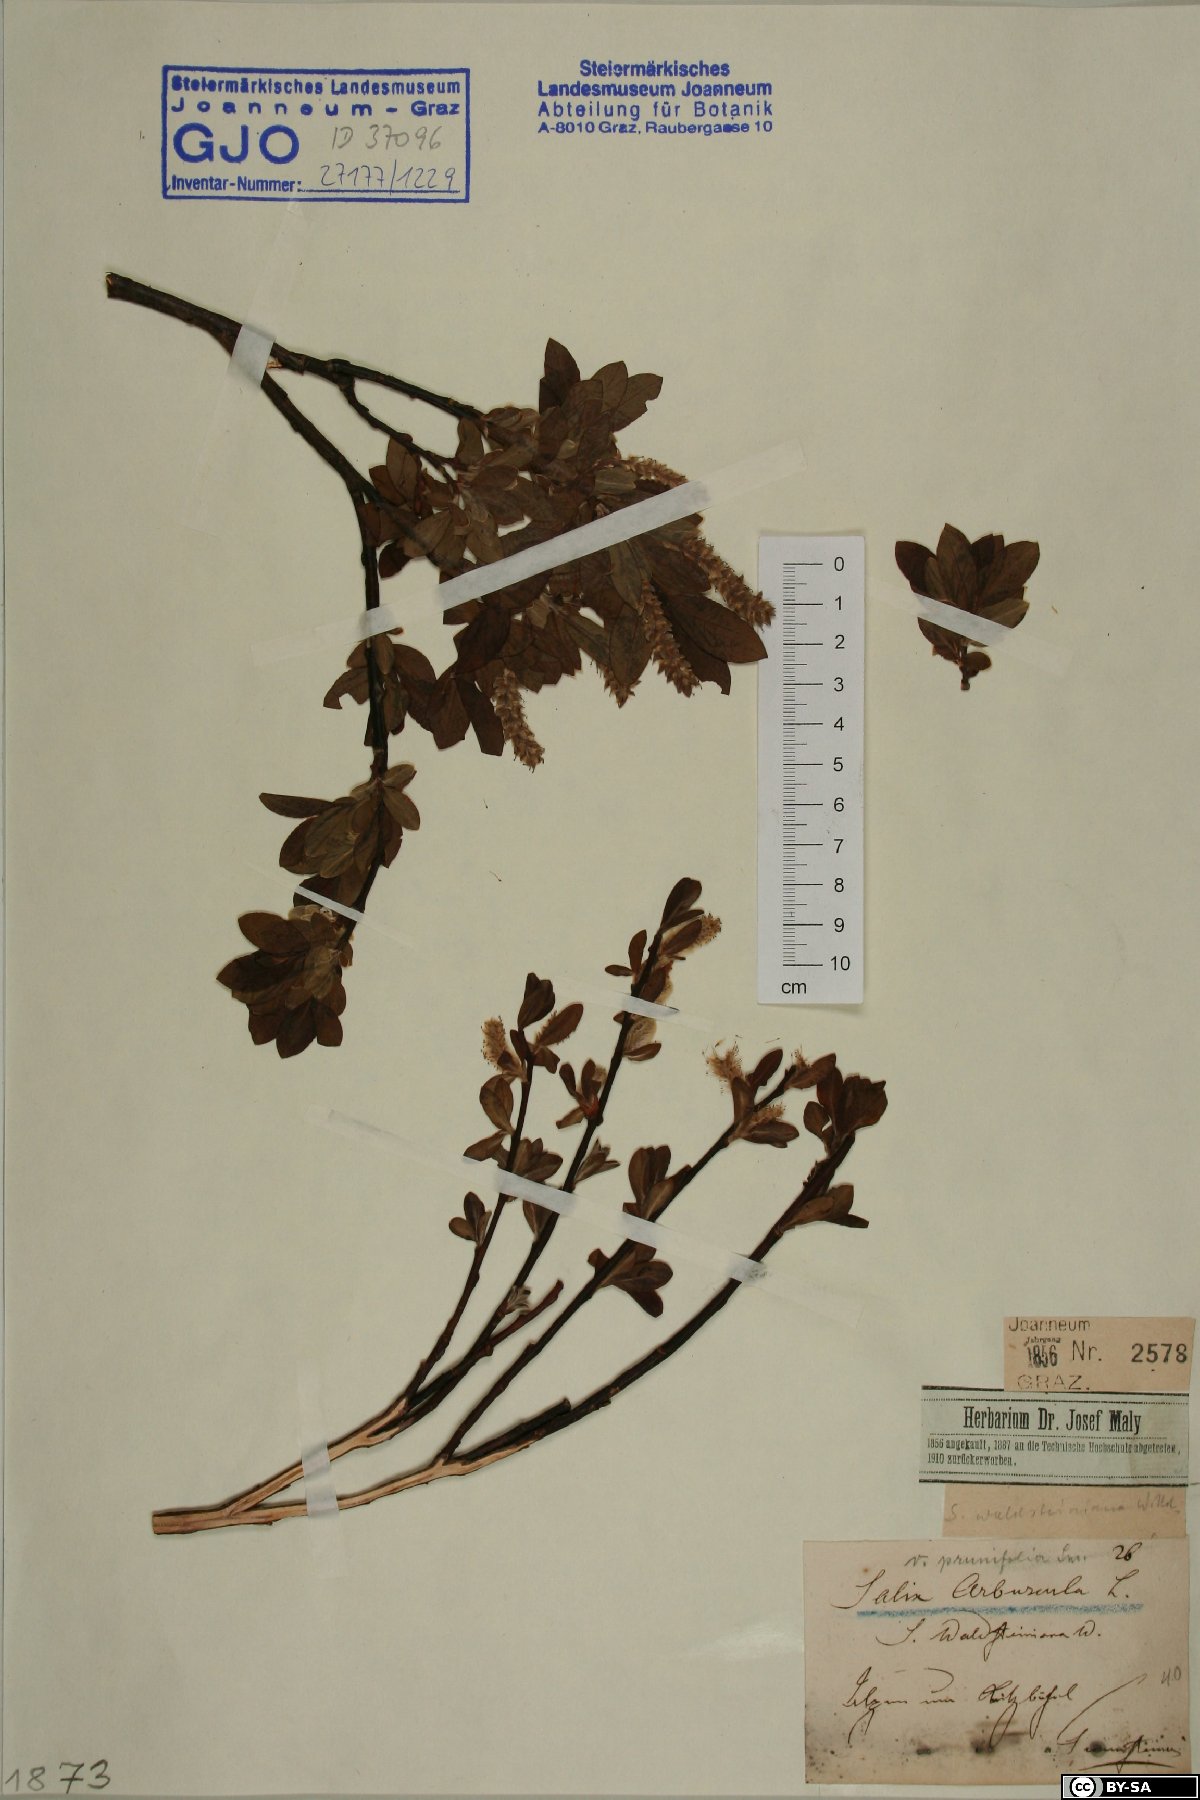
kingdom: Plantae
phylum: Tracheophyta
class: Magnoliopsida
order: Malpighiales
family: Salicaceae
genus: Salix
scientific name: Salix waldsteiniana
